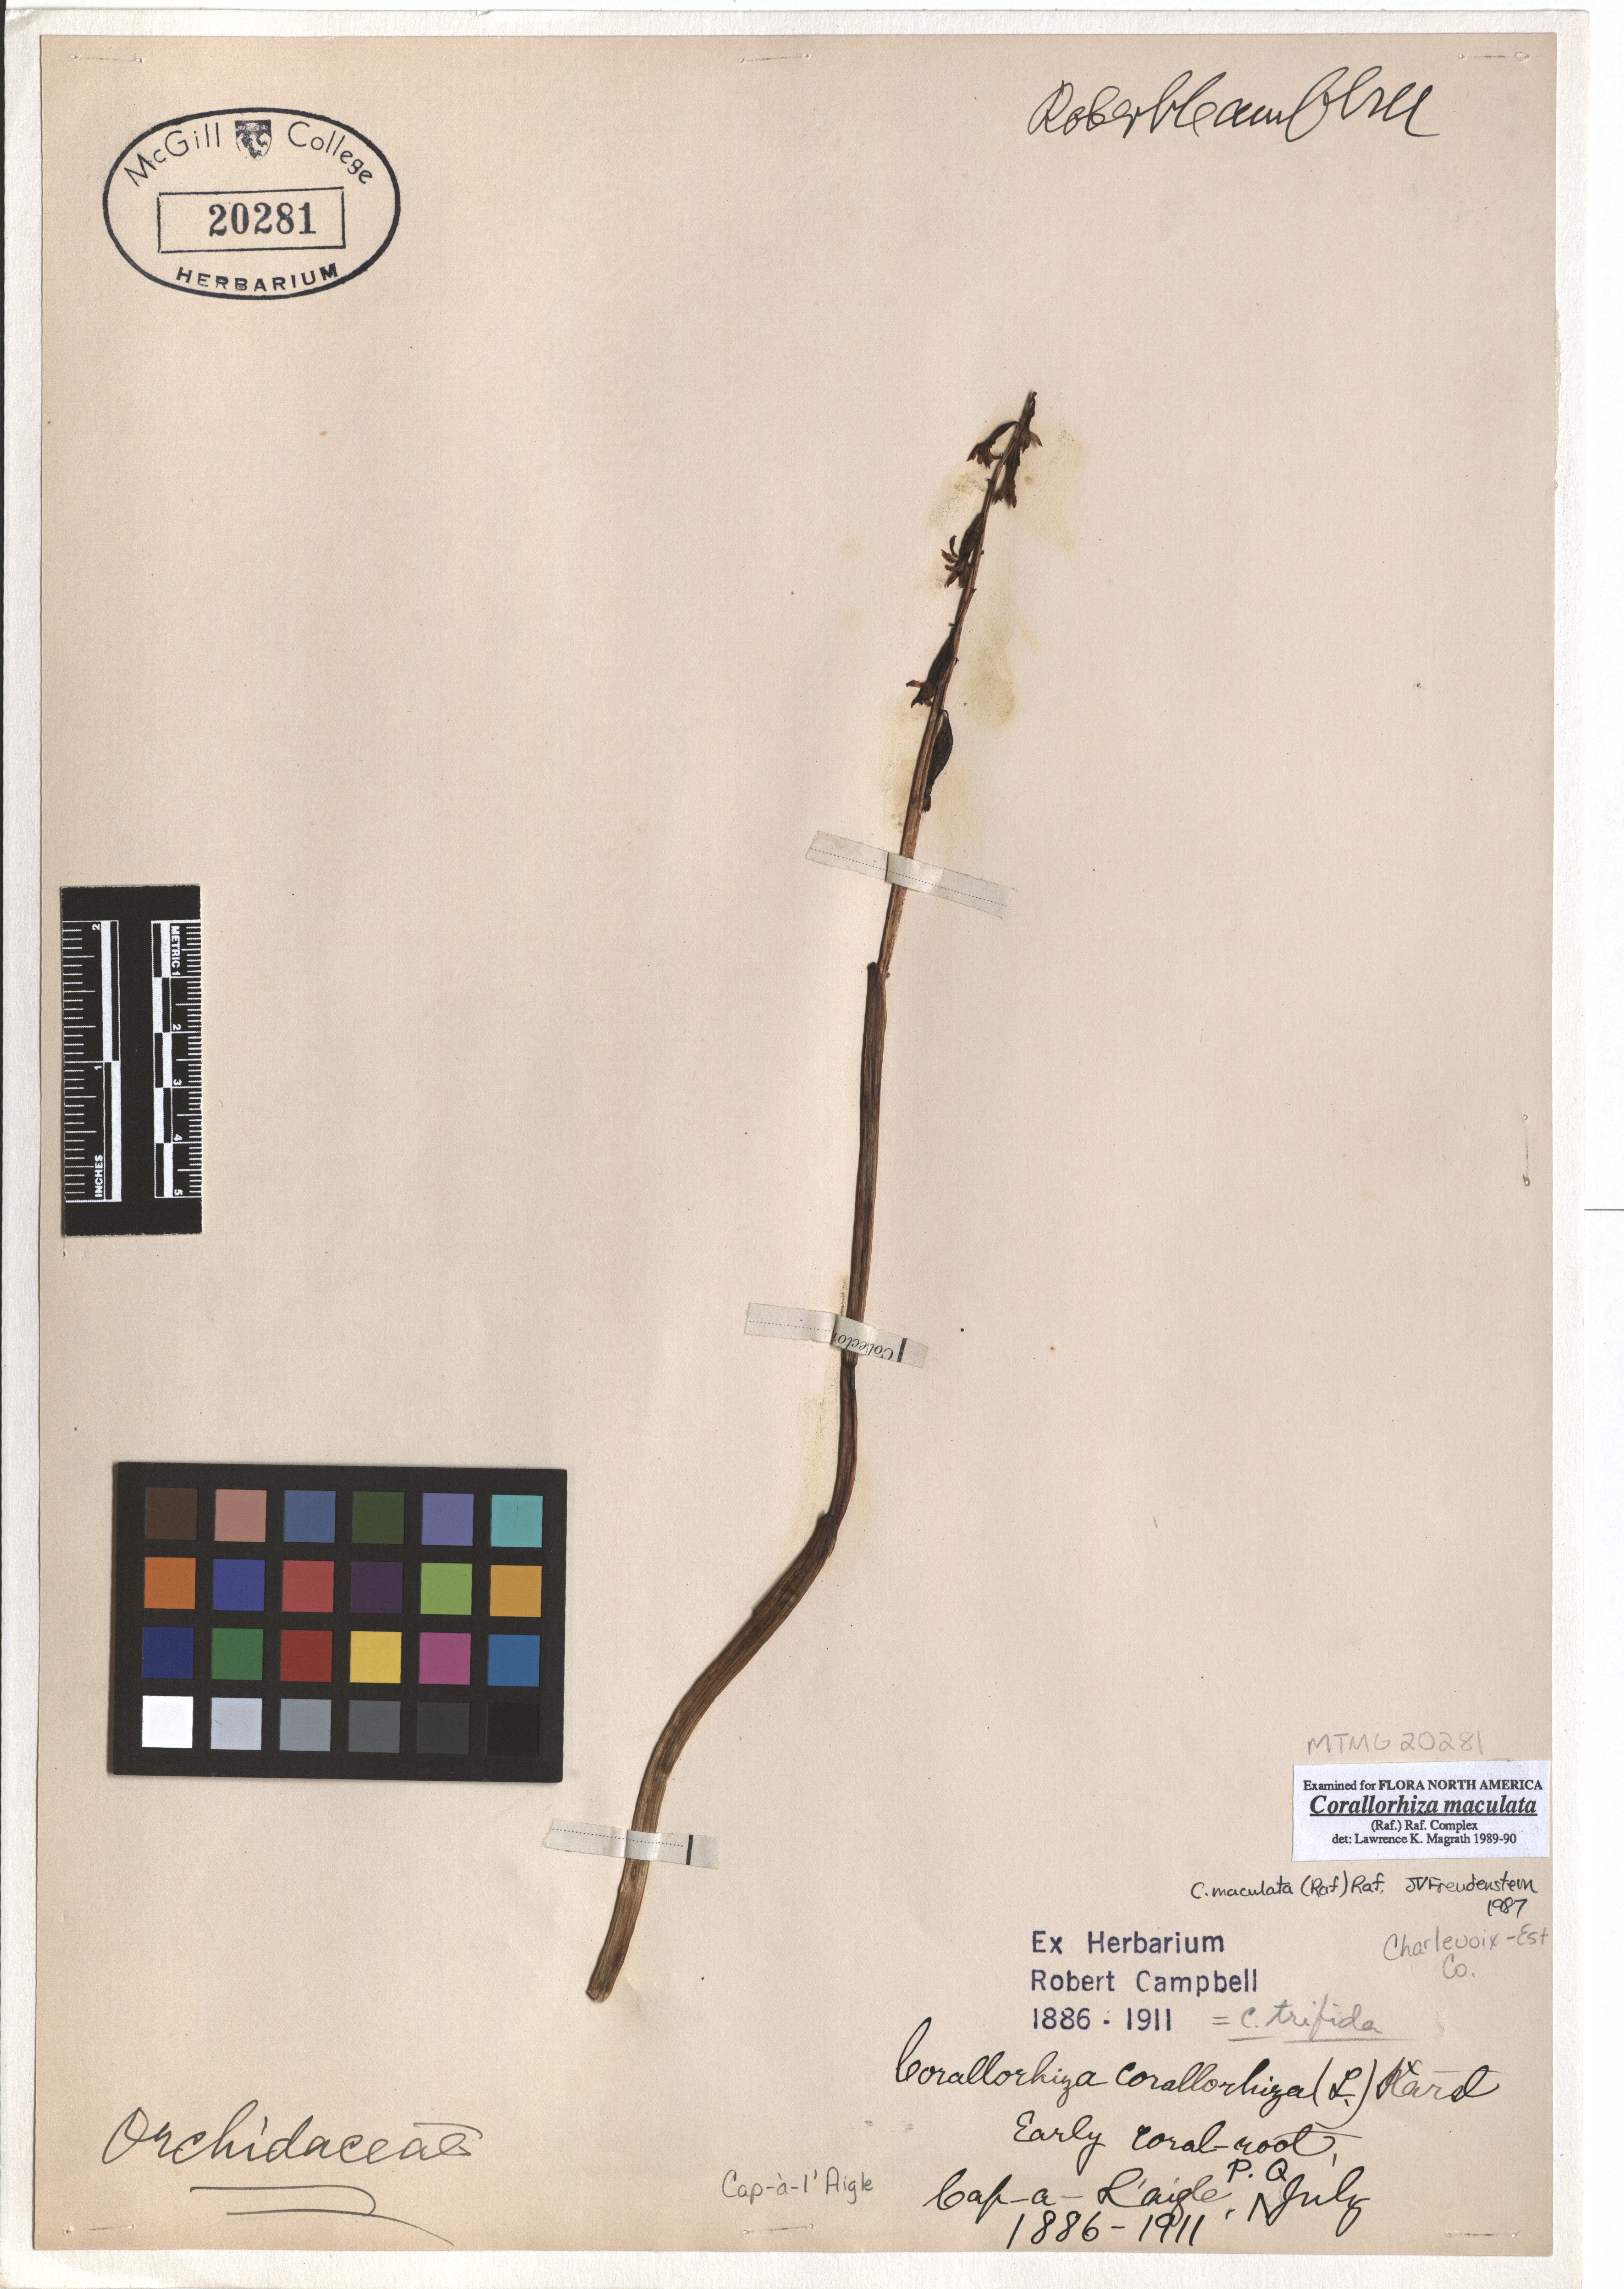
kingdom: Plantae
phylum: Tracheophyta
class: Liliopsida
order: Asparagales
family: Orchidaceae
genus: Corallorhiza
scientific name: Corallorhiza maculata
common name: Spotted coralroot
